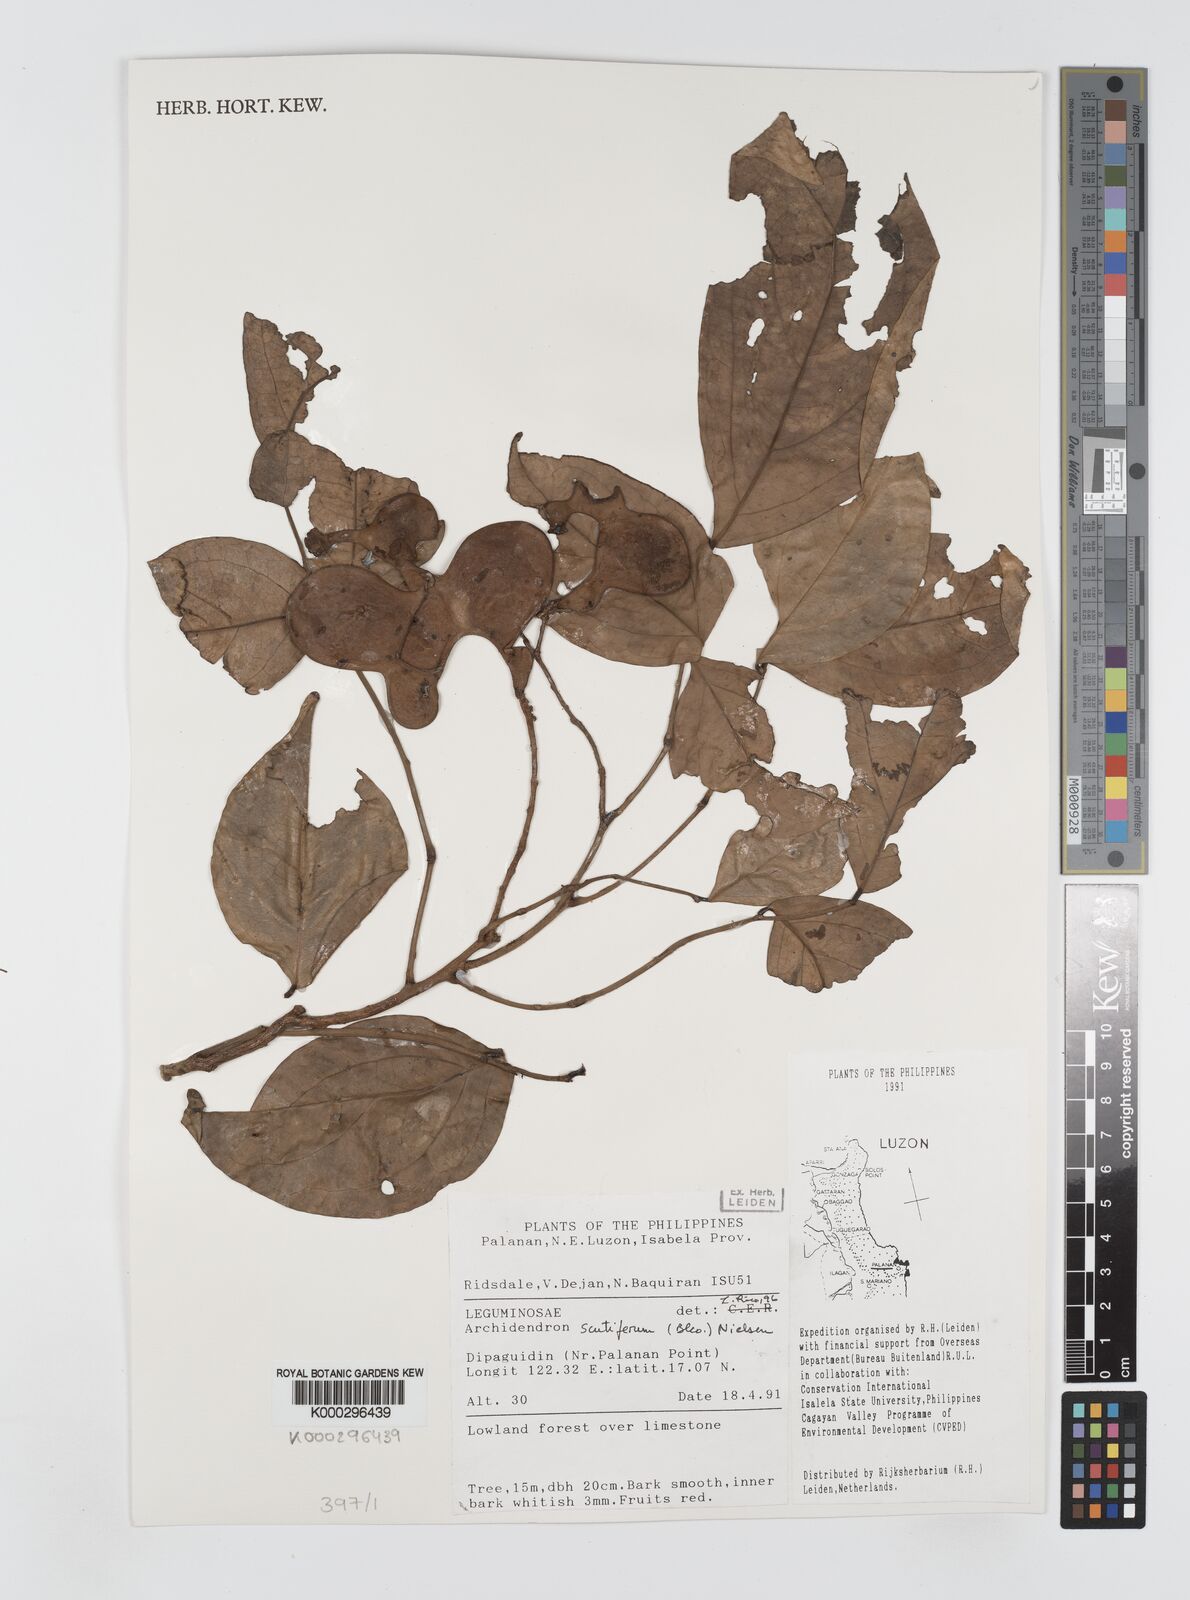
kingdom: Plantae
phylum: Tracheophyta
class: Magnoliopsida
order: Fabales
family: Fabaceae
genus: Archidendron
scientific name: Archidendron scutiferum
